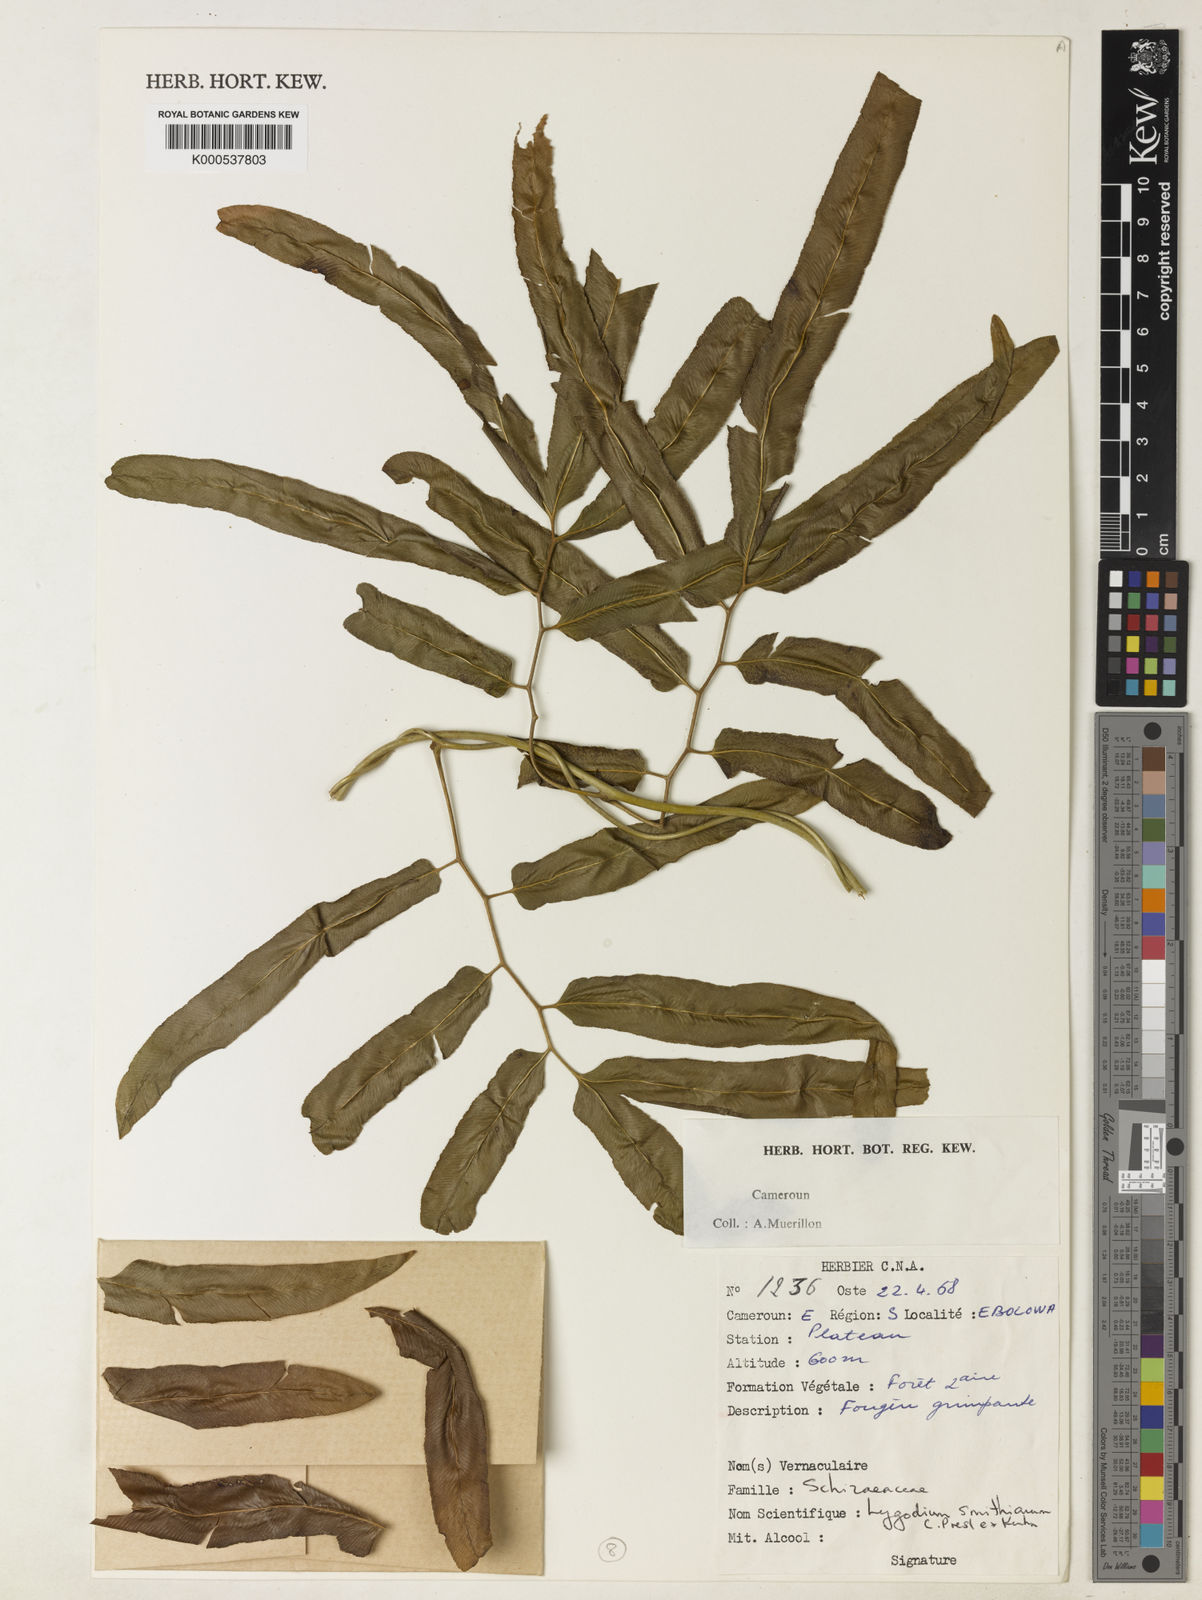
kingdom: Plantae
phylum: Tracheophyta
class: Polypodiopsida
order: Schizaeales
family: Lygodiaceae
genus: Lygodium
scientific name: Lygodium
